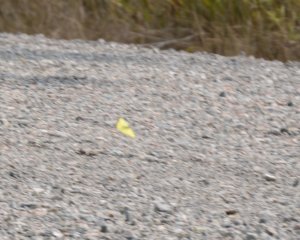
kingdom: Animalia
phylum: Arthropoda
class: Insecta
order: Lepidoptera
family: Pieridae
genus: Colias
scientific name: Colias
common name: Clouded Yellows
